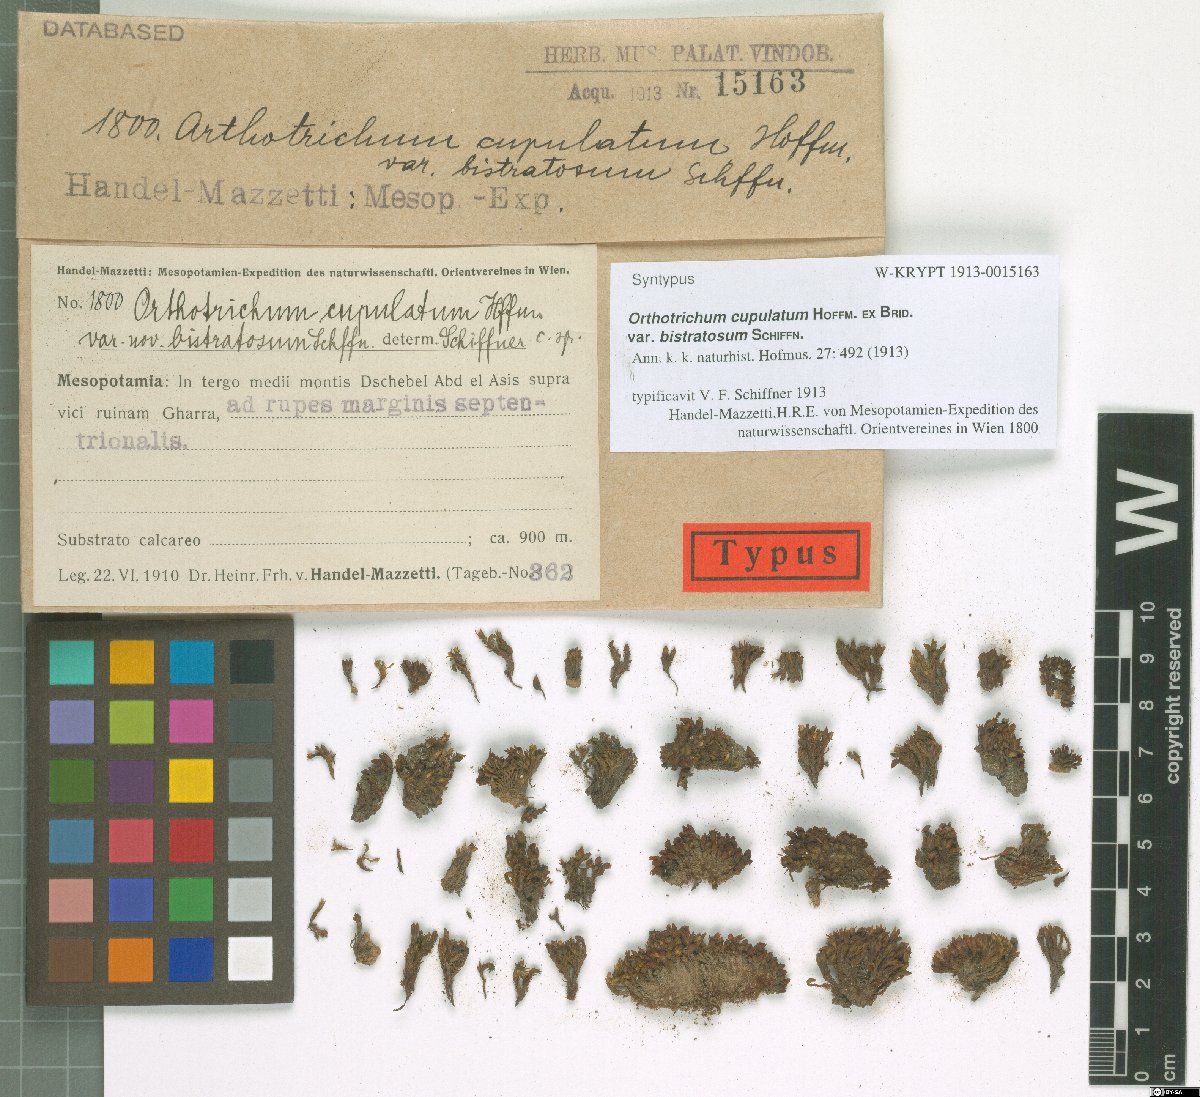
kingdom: Plantae
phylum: Bryophyta
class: Bryopsida
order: Orthotrichales
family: Orthotrichaceae
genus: Orthotrichum
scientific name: Orthotrichum bistratosum
